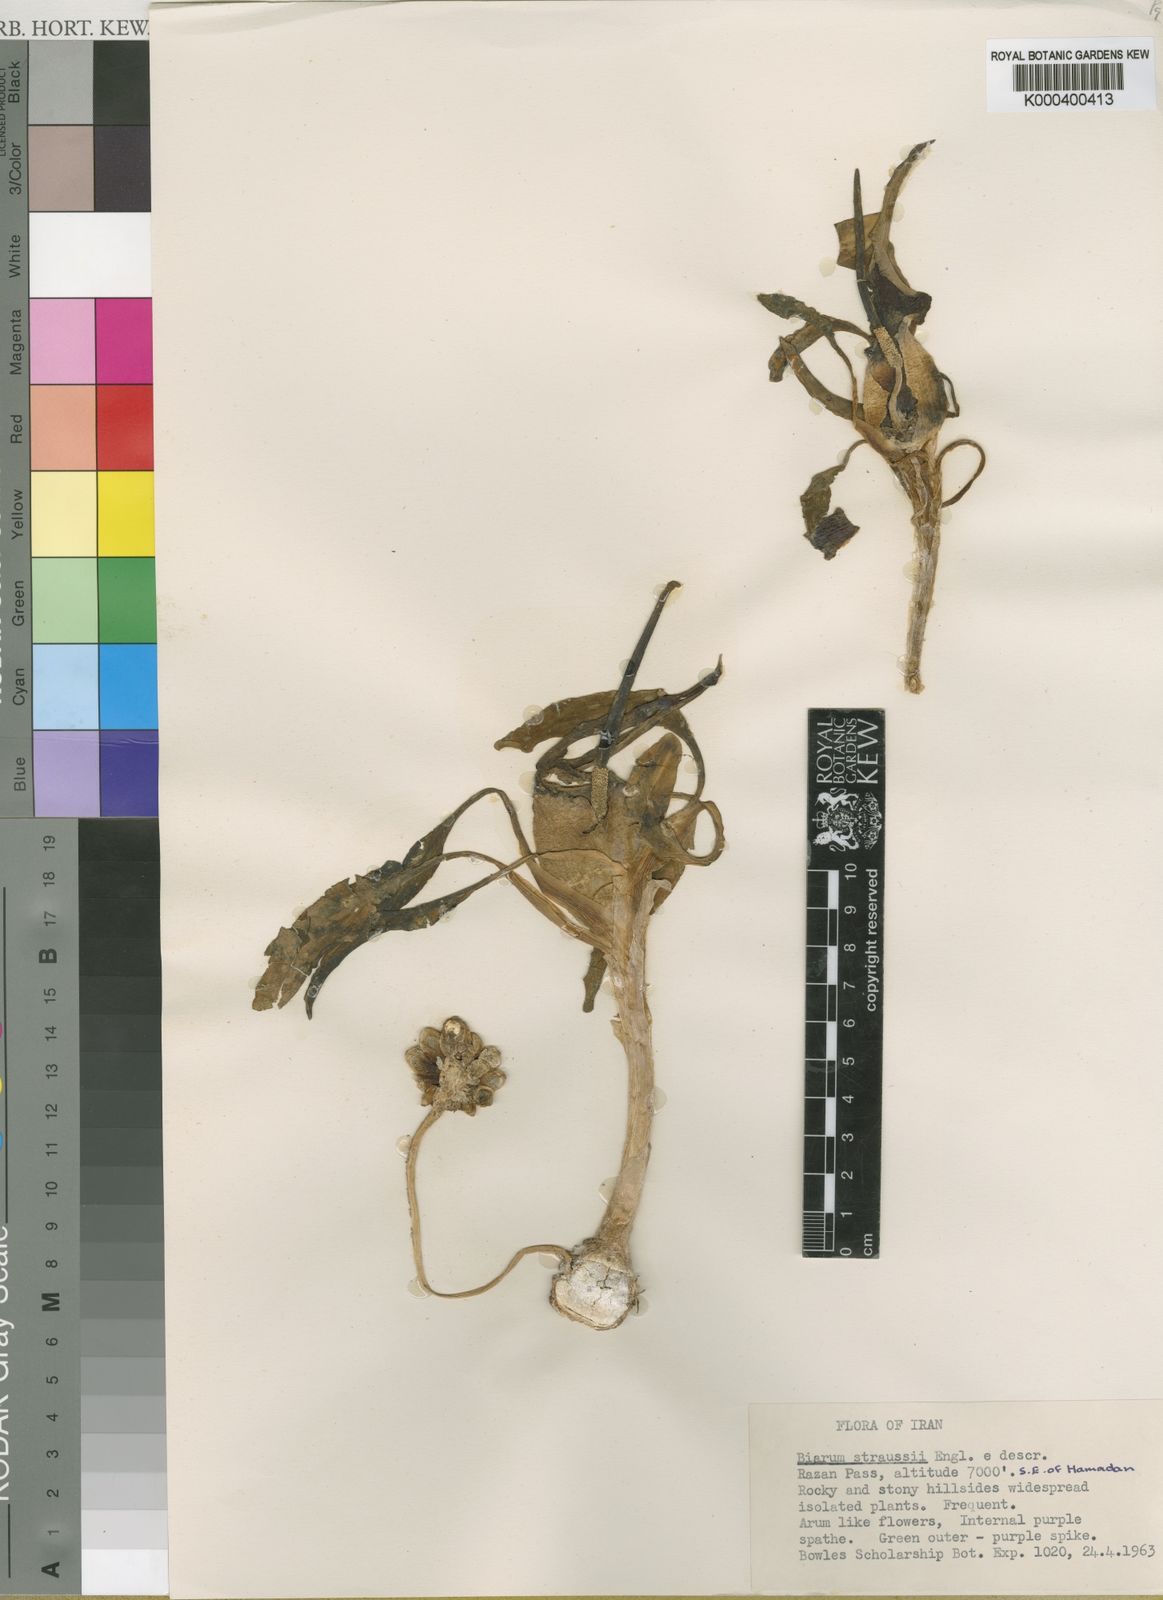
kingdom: Plantae
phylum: Tracheophyta
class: Liliopsida
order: Alismatales
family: Araceae
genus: Biarum
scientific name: Biarum straussii
